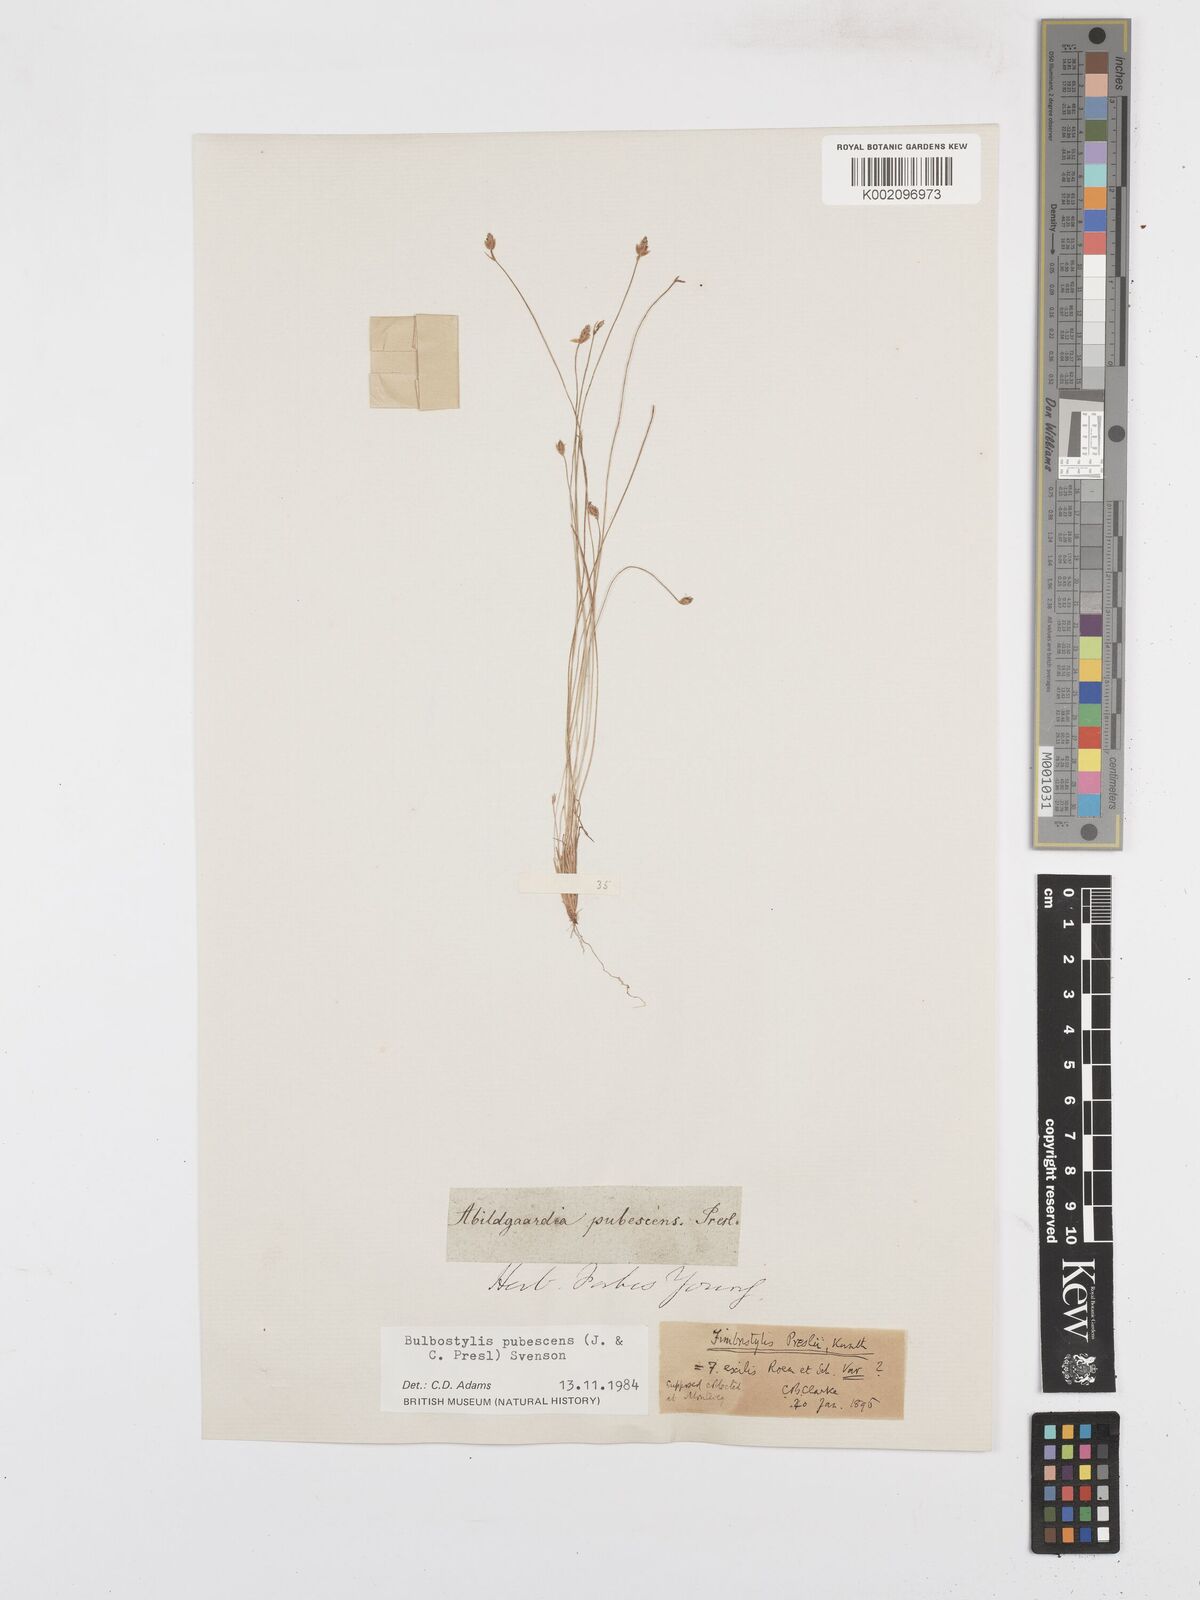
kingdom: Plantae
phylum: Tracheophyta
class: Liliopsida
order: Poales
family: Cyperaceae
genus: Bulbostylis
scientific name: Bulbostylis pubescens
